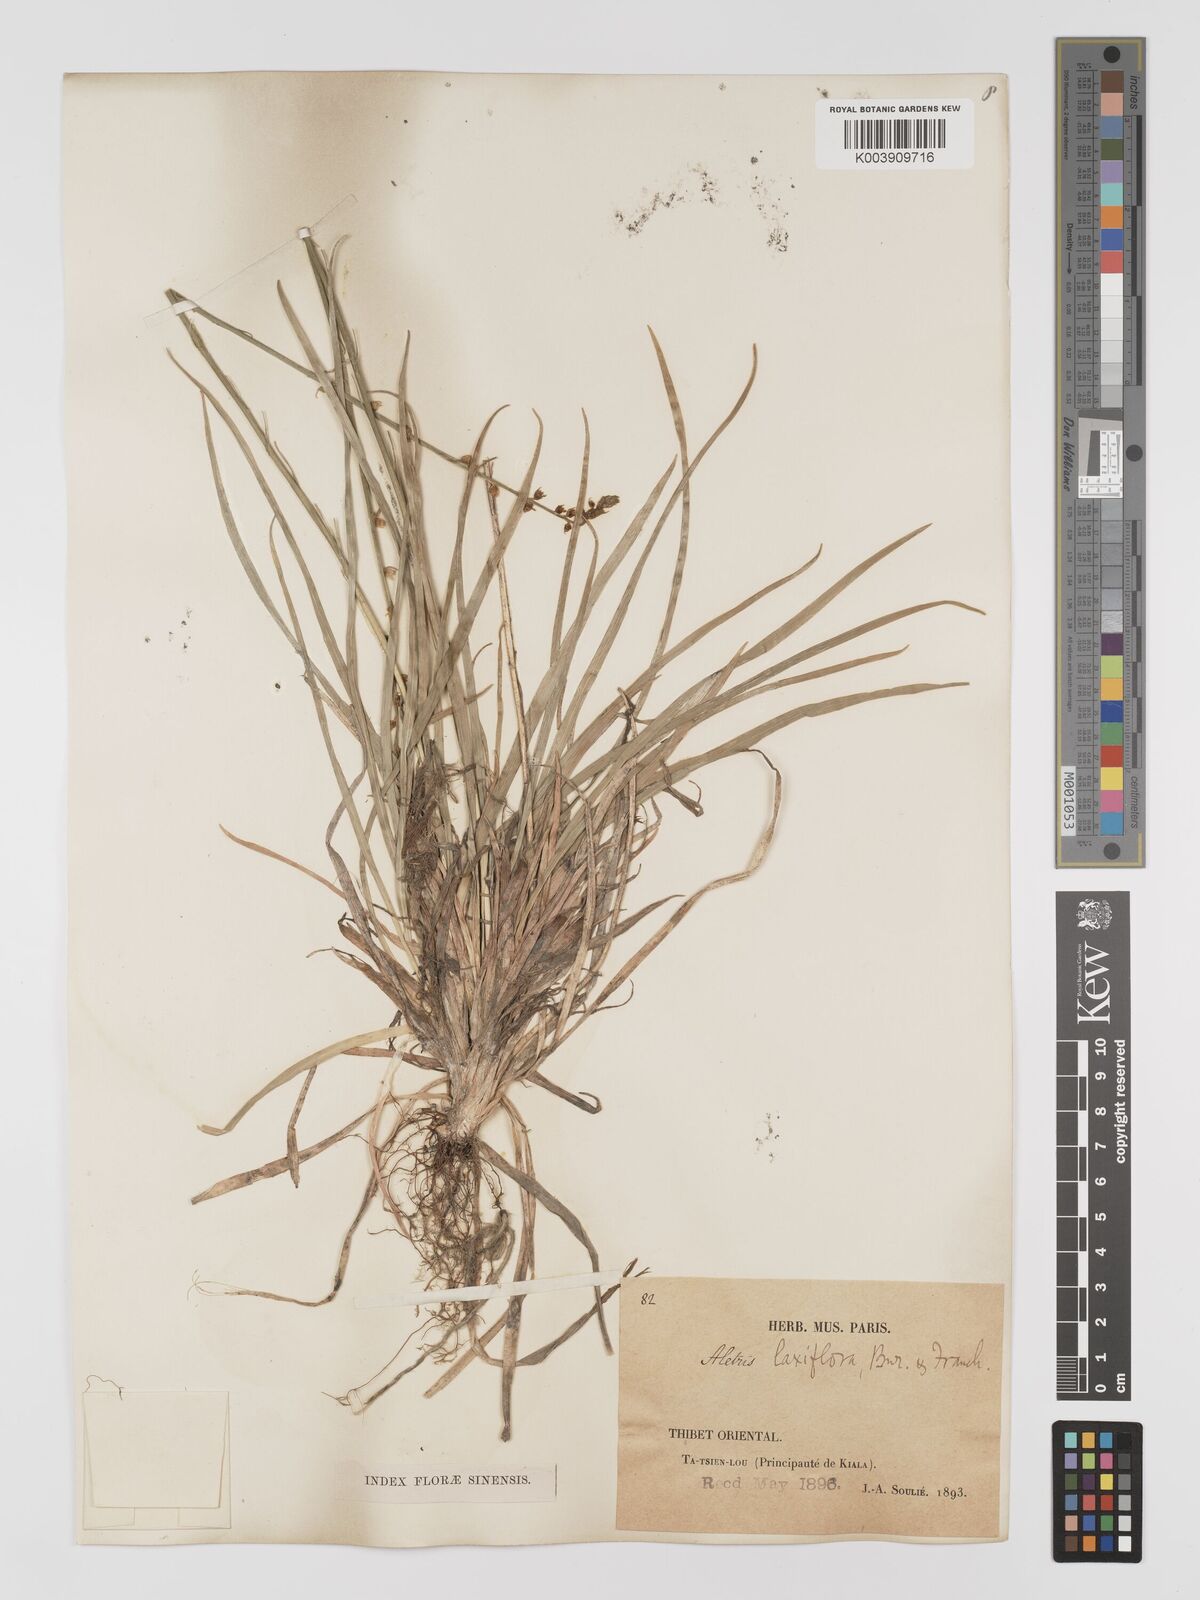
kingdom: Plantae
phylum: Tracheophyta
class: Liliopsida
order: Dioscoreales
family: Nartheciaceae
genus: Aletris
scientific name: Aletris laxiflora
